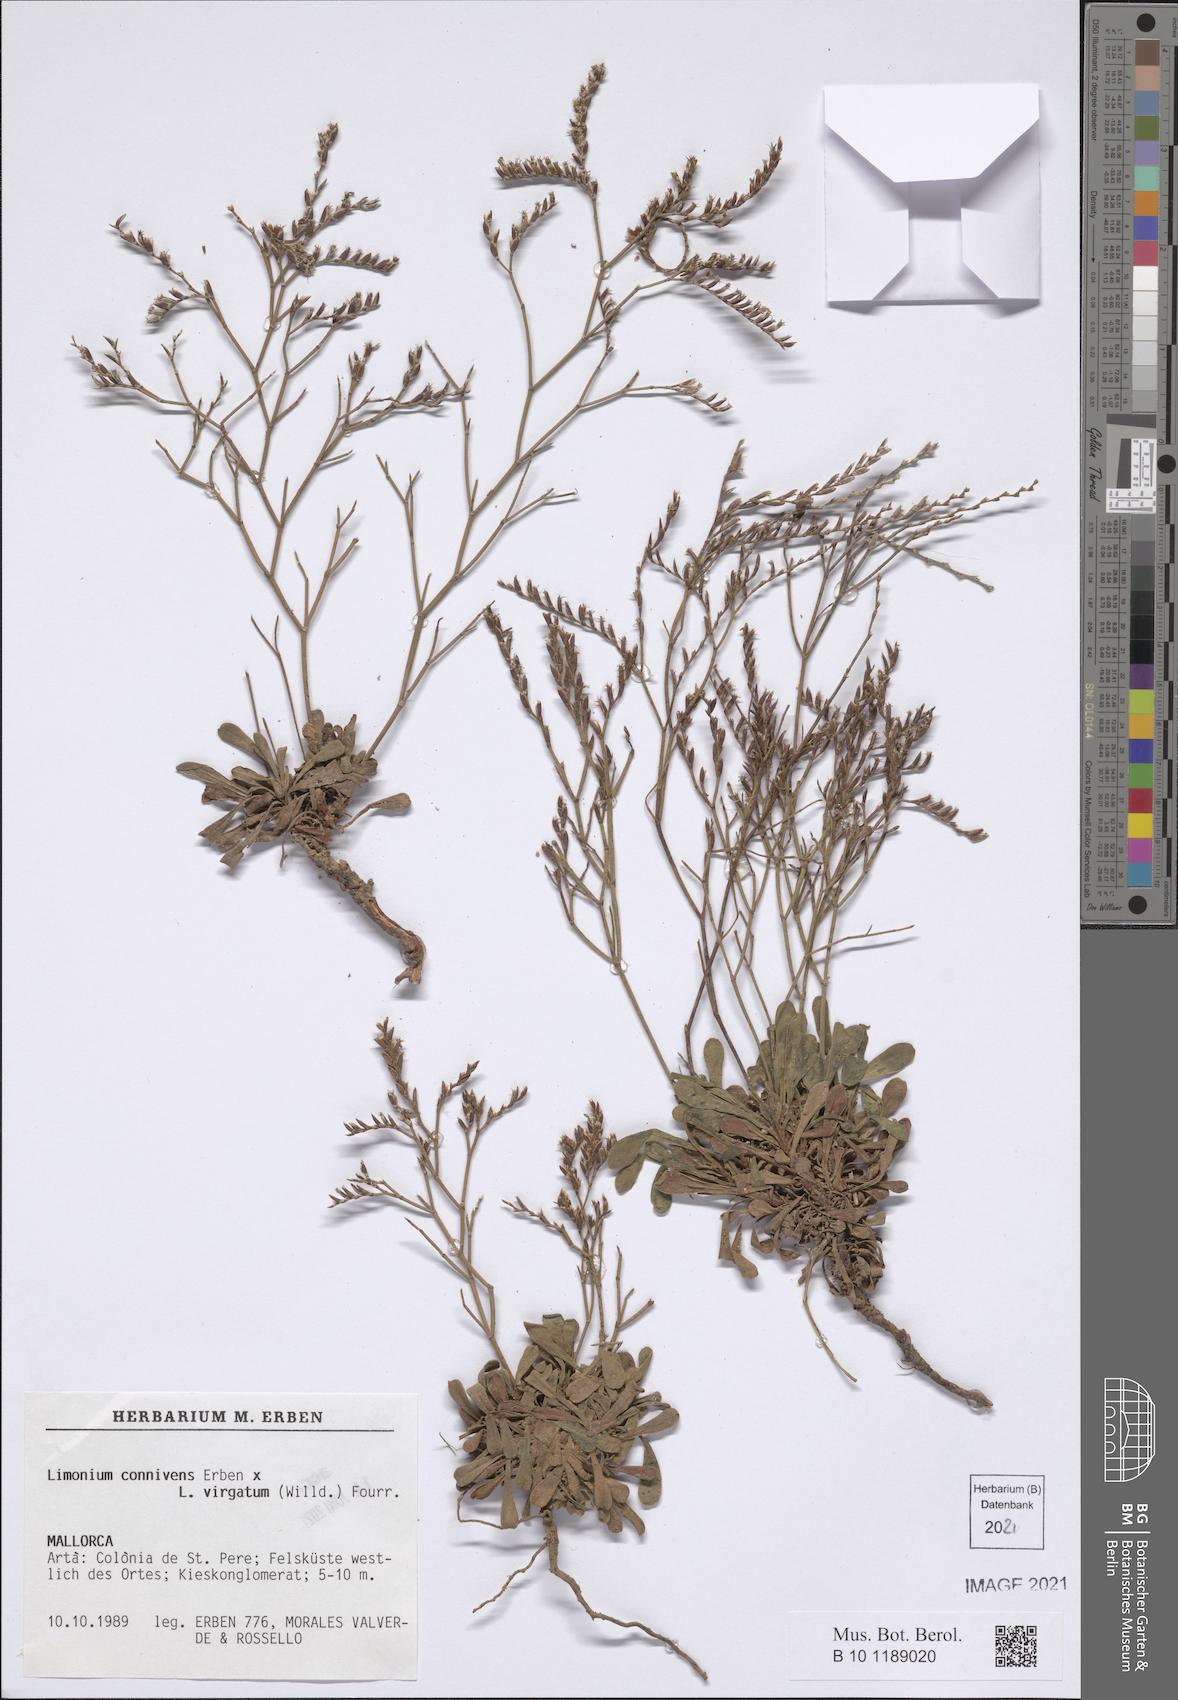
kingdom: Plantae
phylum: Tracheophyta
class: Magnoliopsida
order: Caryophyllales
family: Plumbaginaceae
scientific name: Plumbaginaceae
